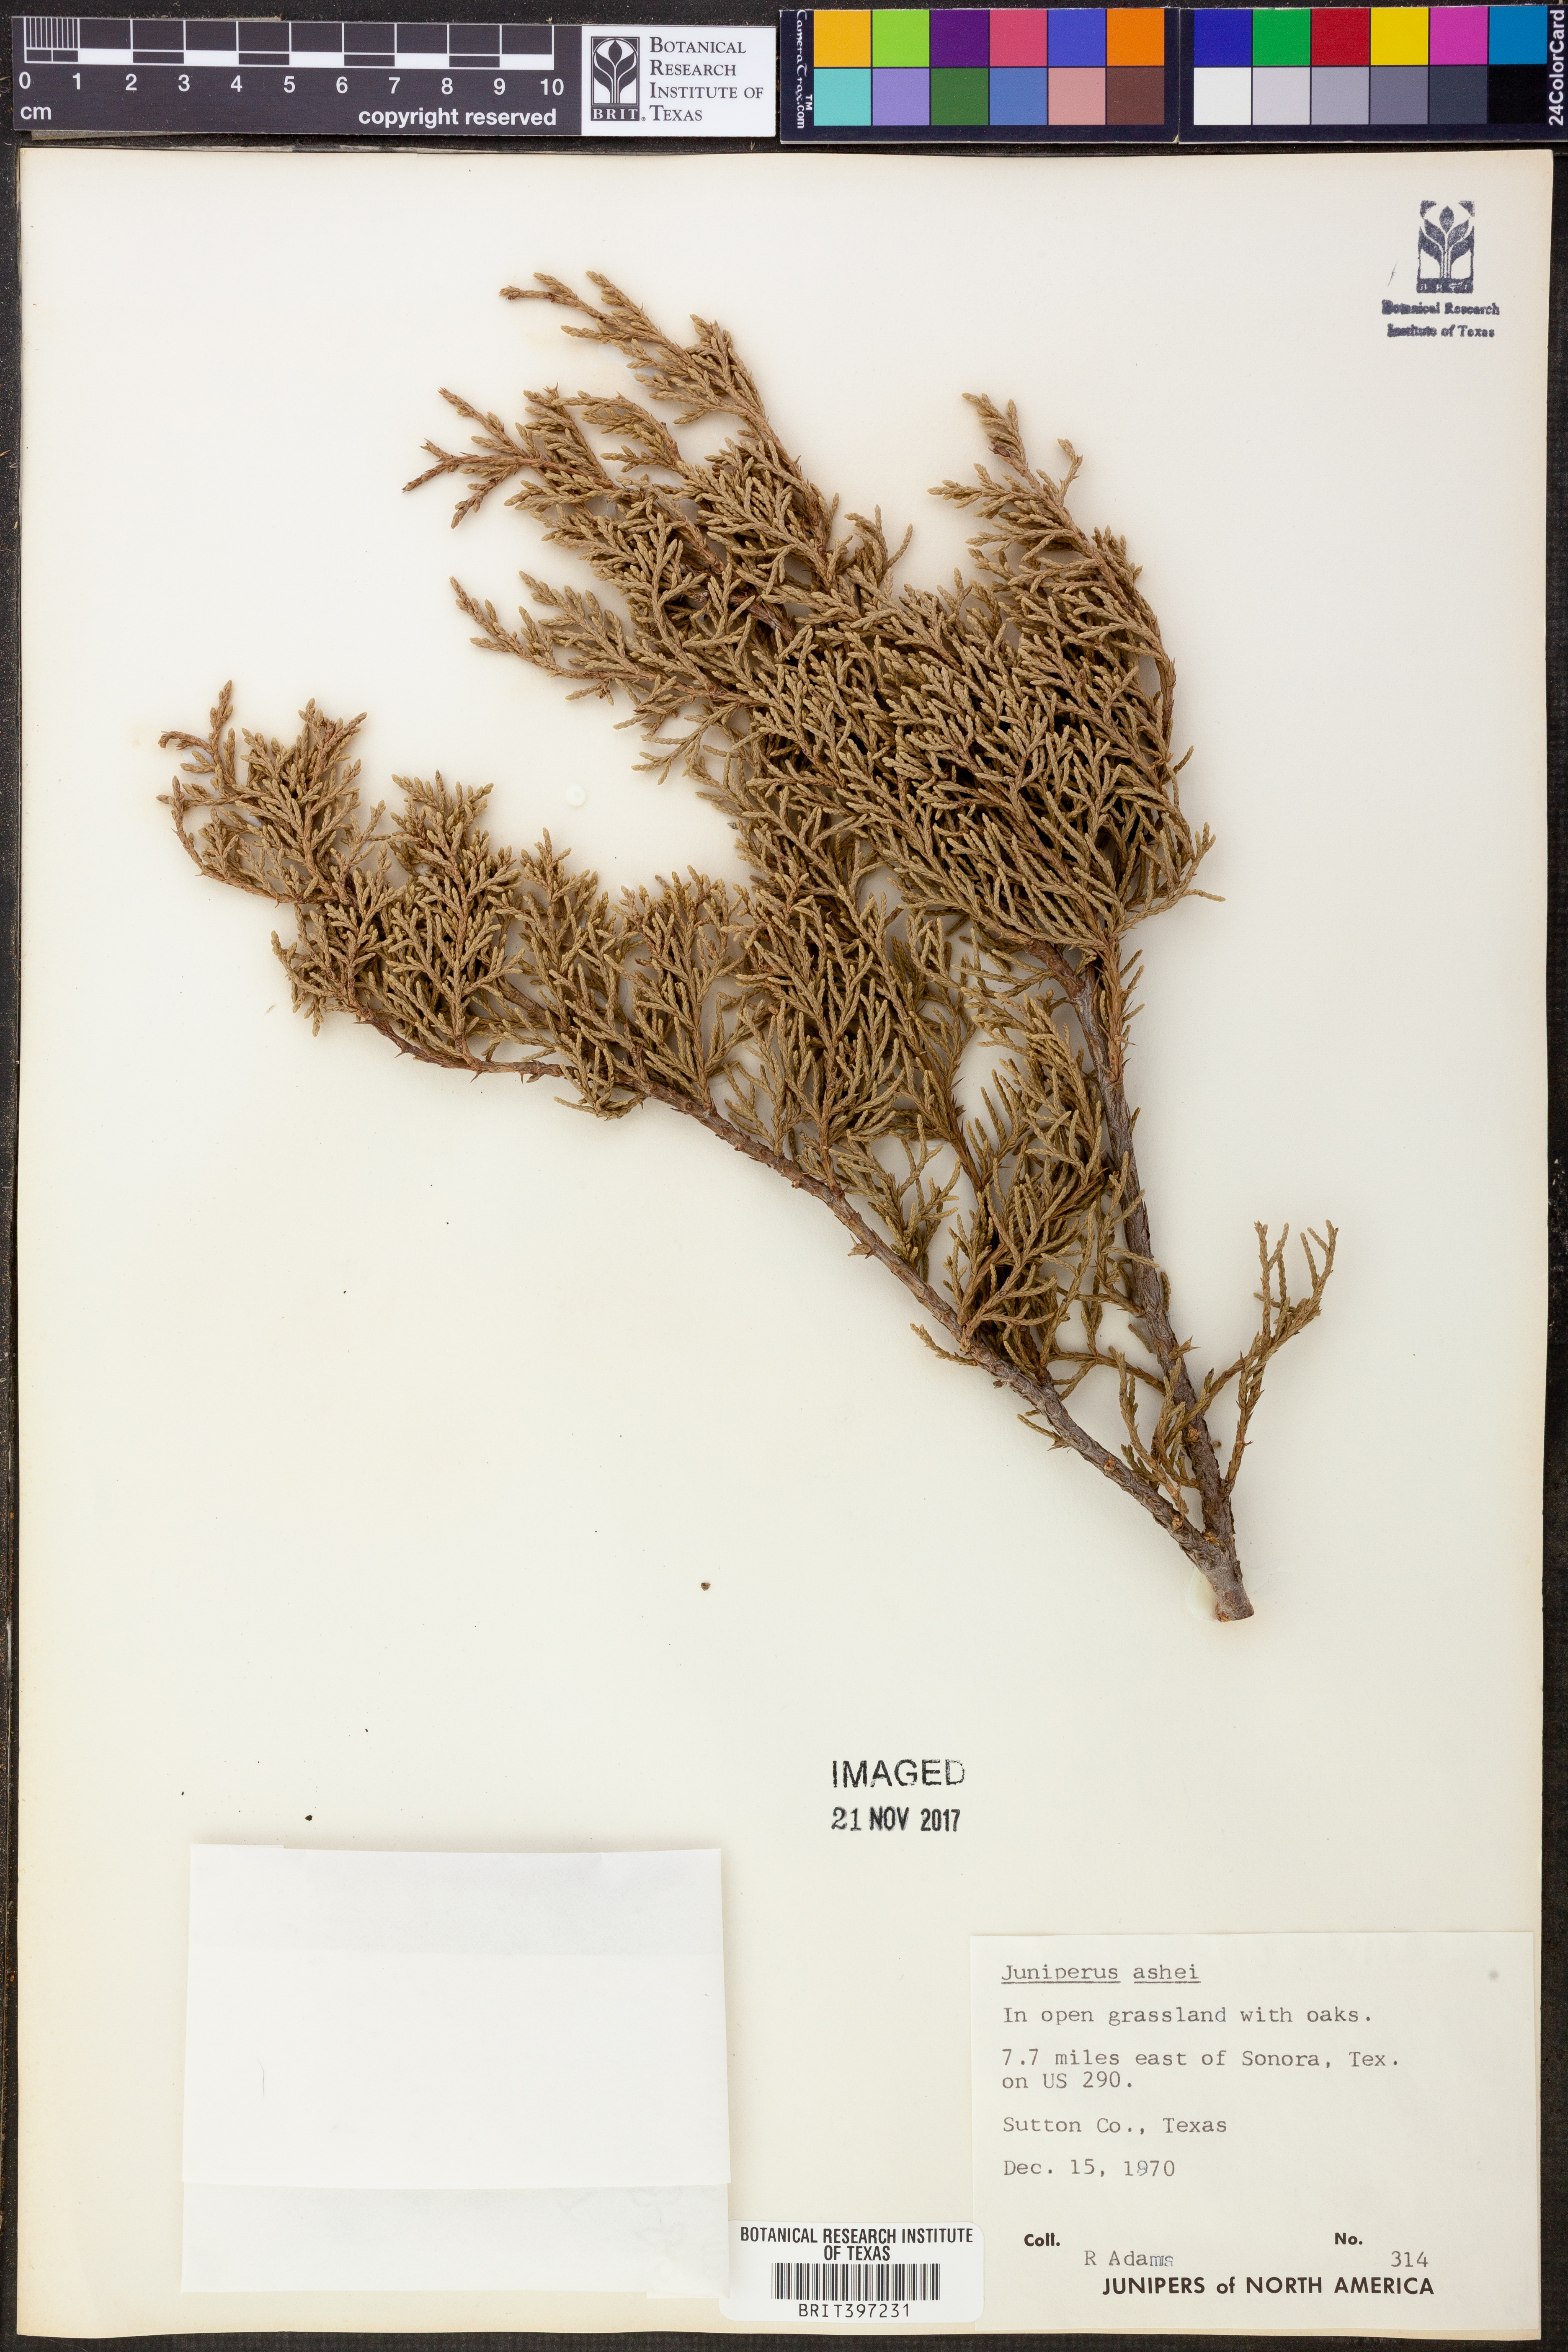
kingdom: Plantae
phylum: Tracheophyta
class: Pinopsida
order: Pinales
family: Cupressaceae
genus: Juniperus
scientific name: Juniperus ashei
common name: Mexican juniper
